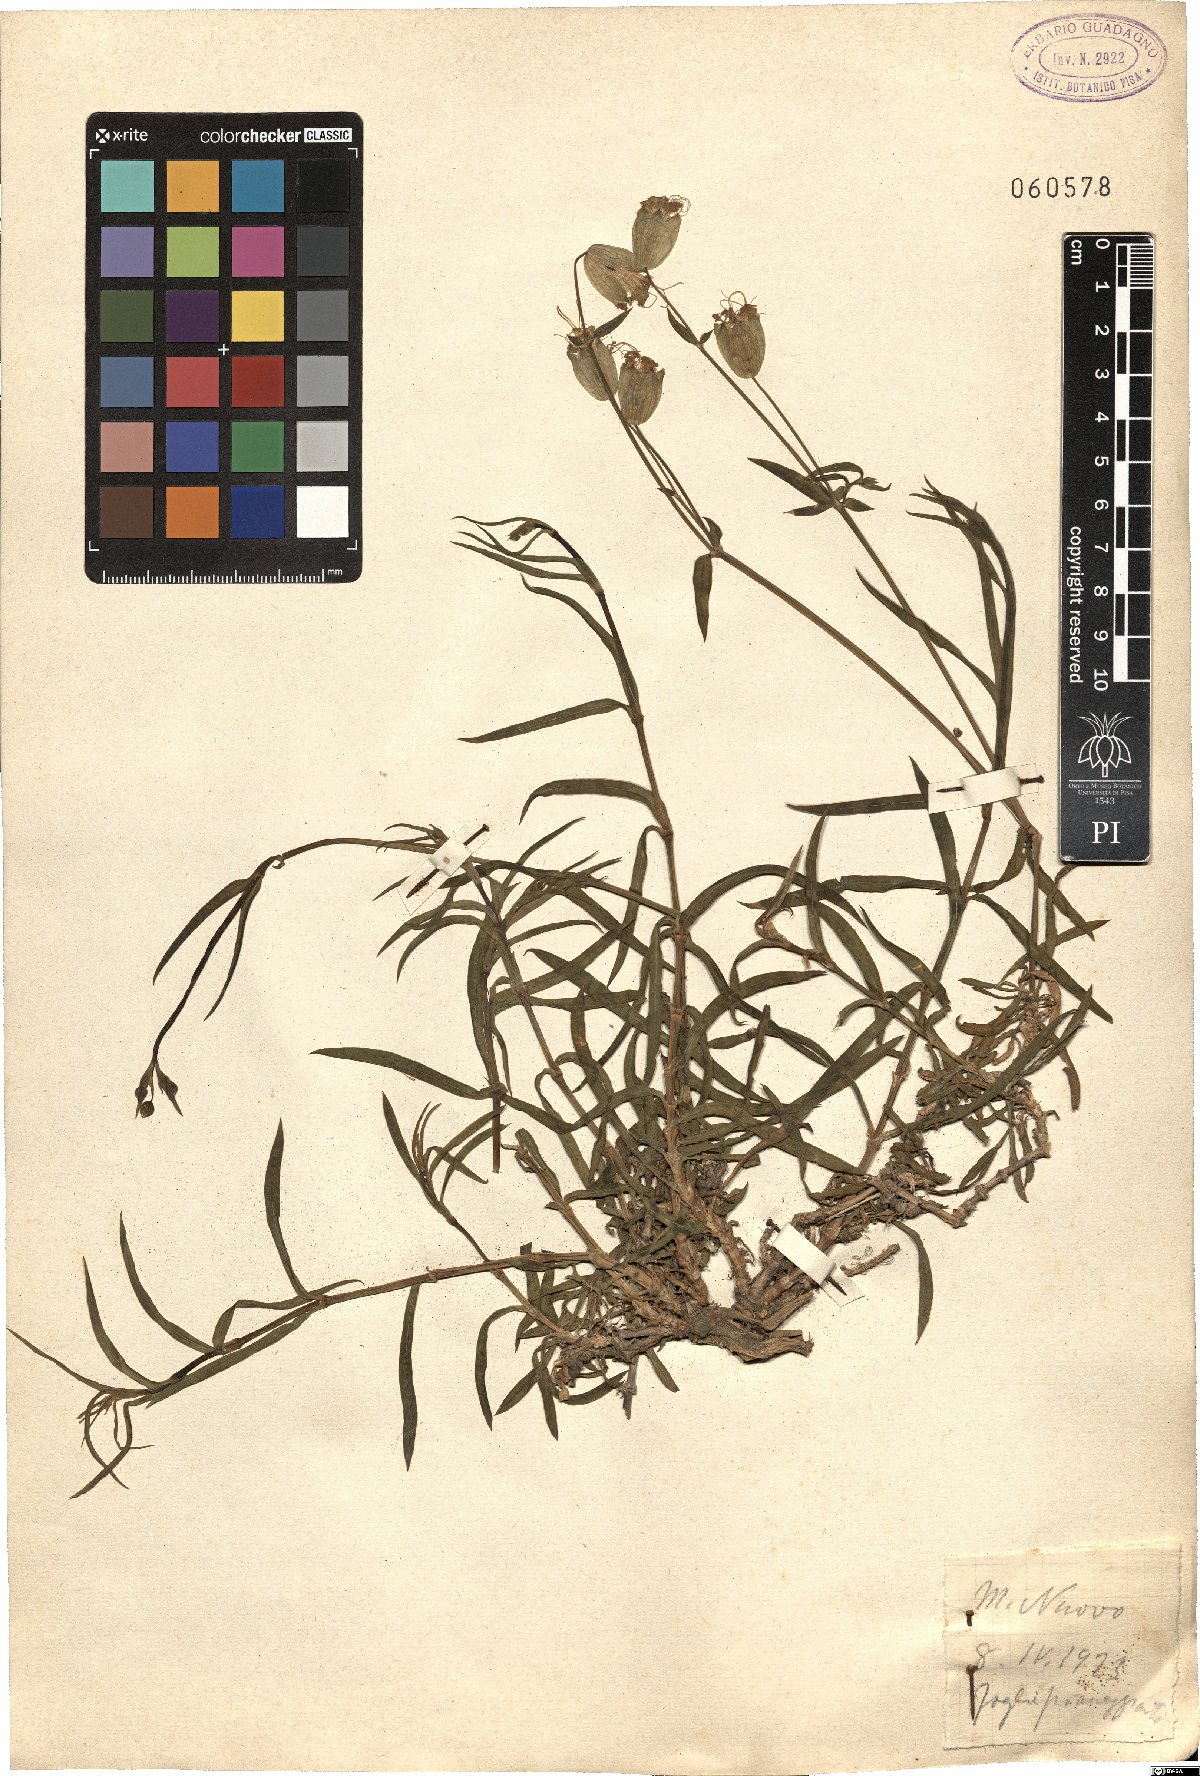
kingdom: Plantae
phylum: Tracheophyta
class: Magnoliopsida
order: Caryophyllales
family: Caryophyllaceae
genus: Silene
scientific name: Silene
